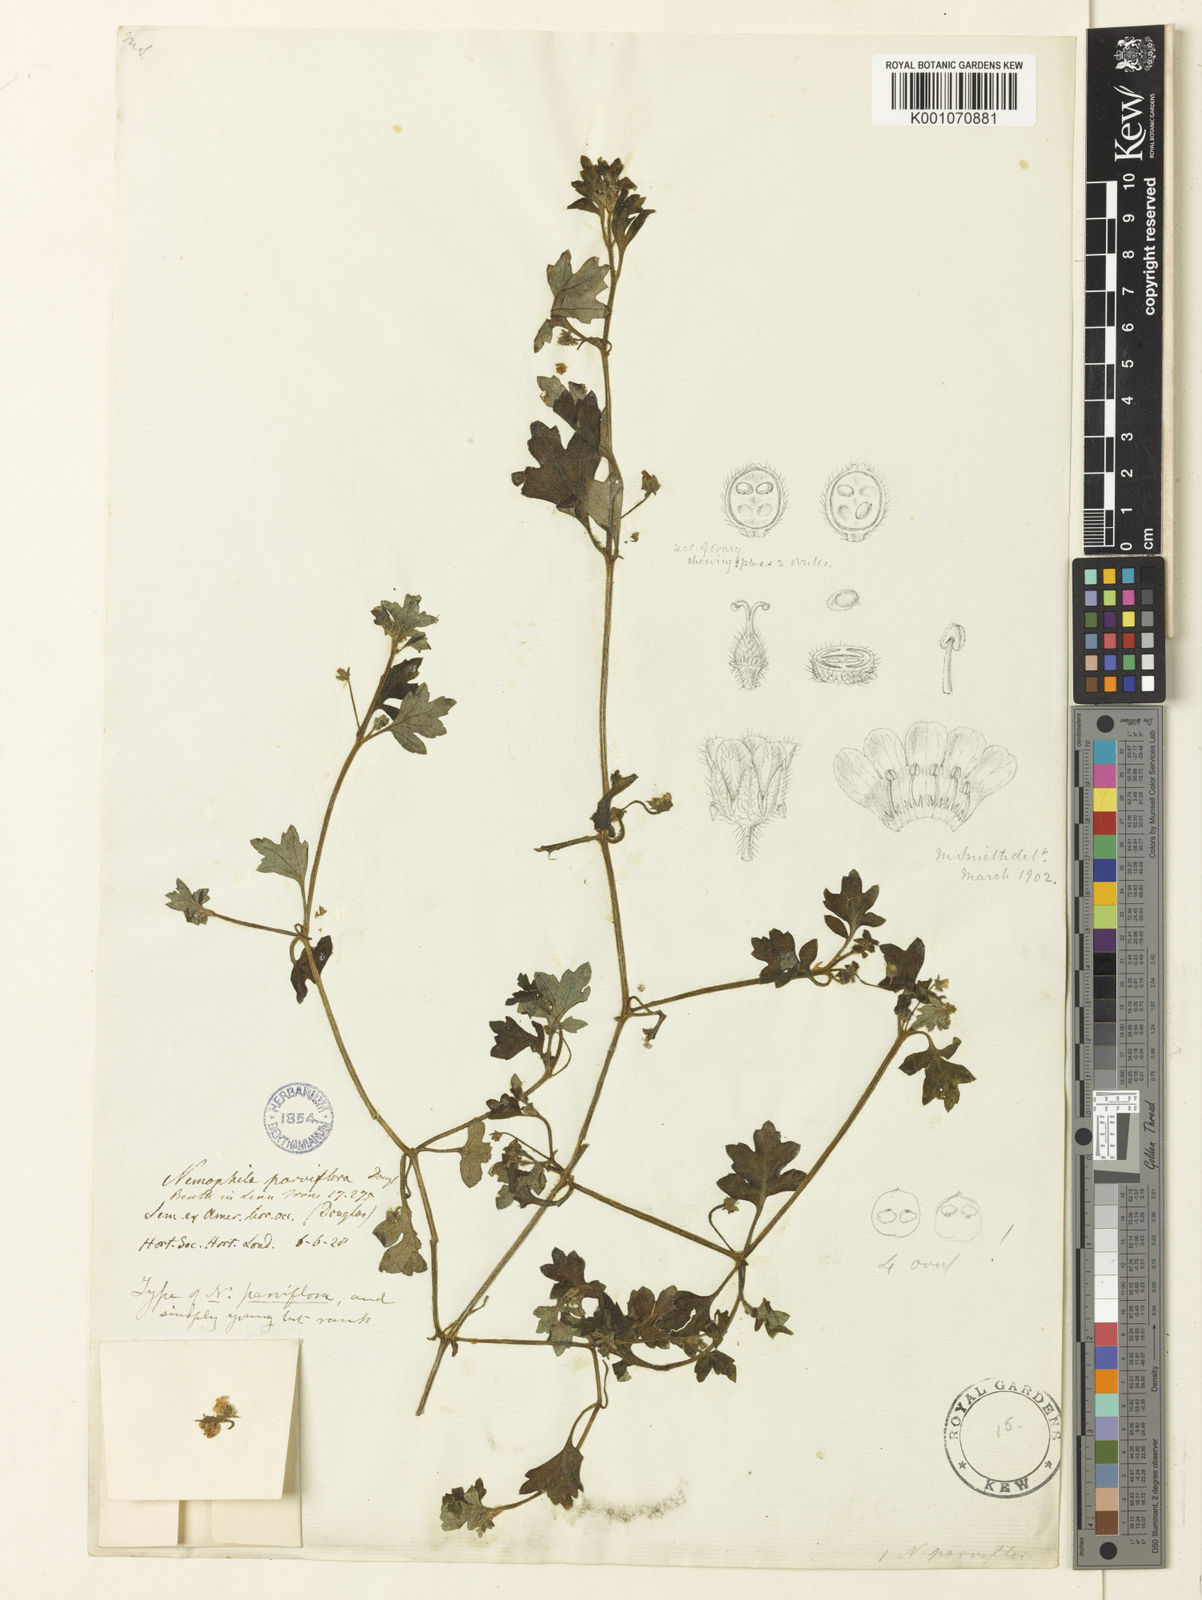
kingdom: Plantae
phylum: Tracheophyta
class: Magnoliopsida
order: Boraginales
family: Hydrophyllaceae
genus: Nemophila
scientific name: Nemophila parviflora
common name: Small-flowered baby-blue-eyes
